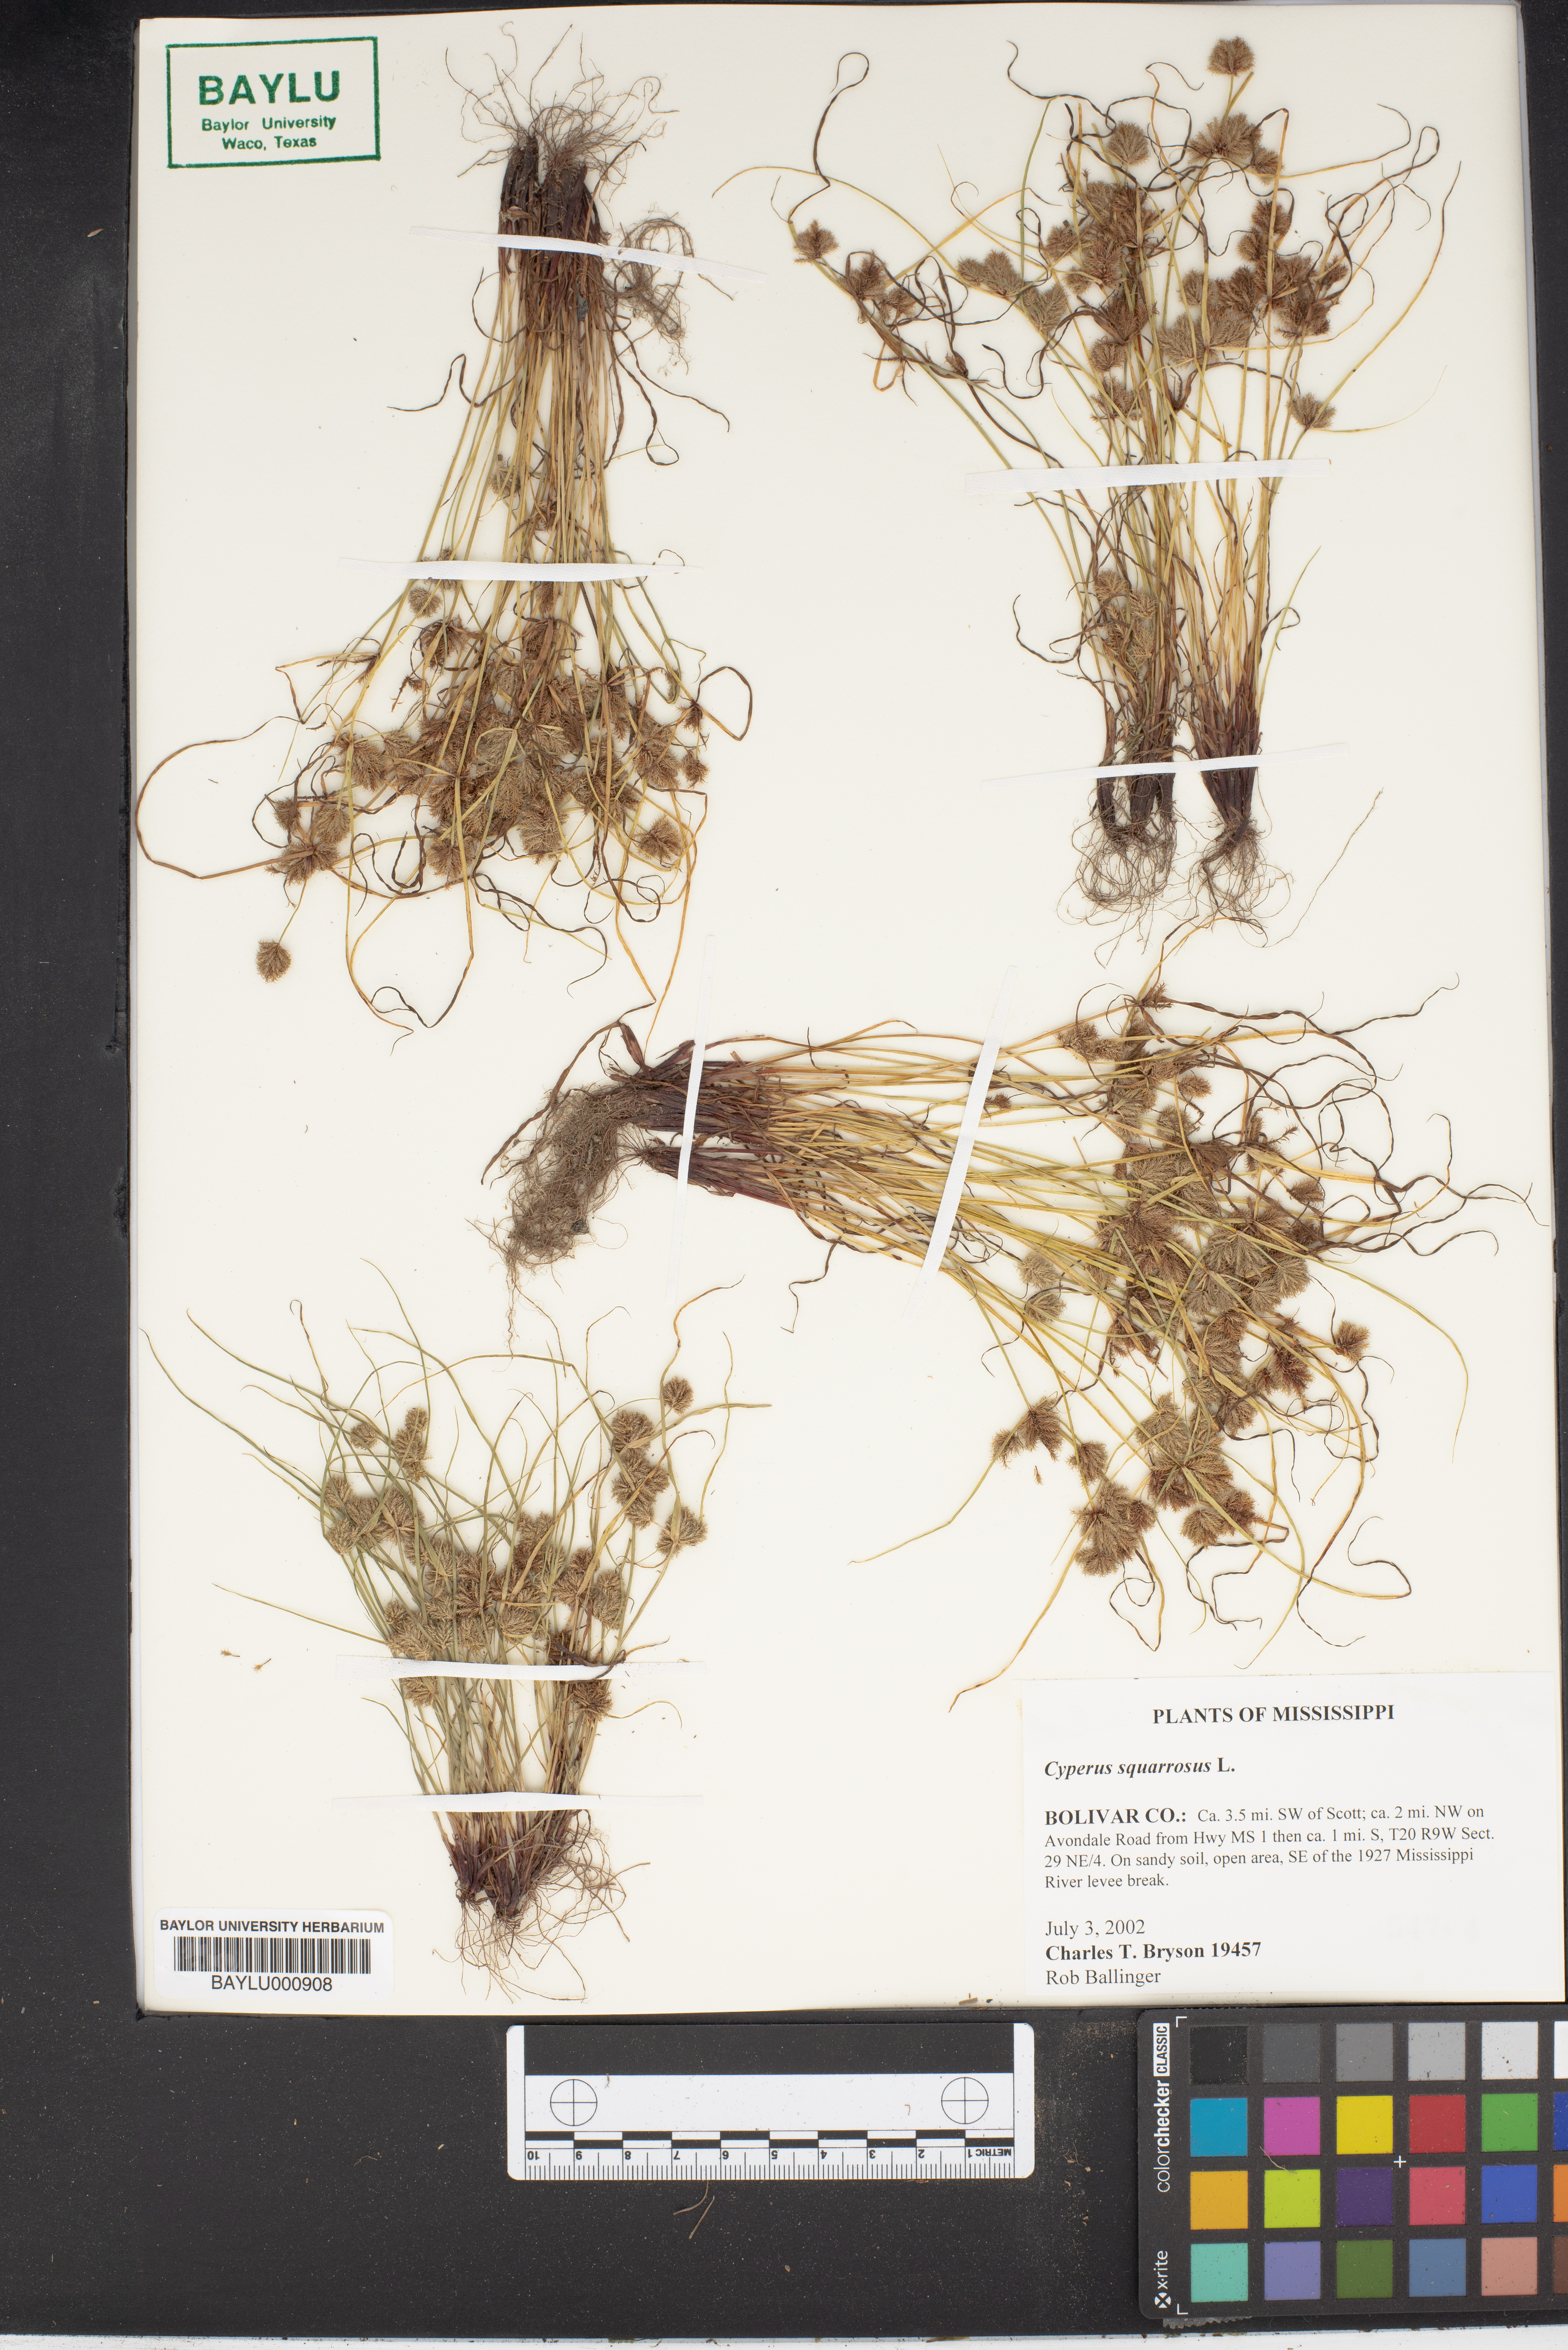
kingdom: Plantae
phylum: Tracheophyta
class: Liliopsida
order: Poales
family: Cyperaceae
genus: Cyperus
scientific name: Cyperus squarrosus
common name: Awned cyperus
